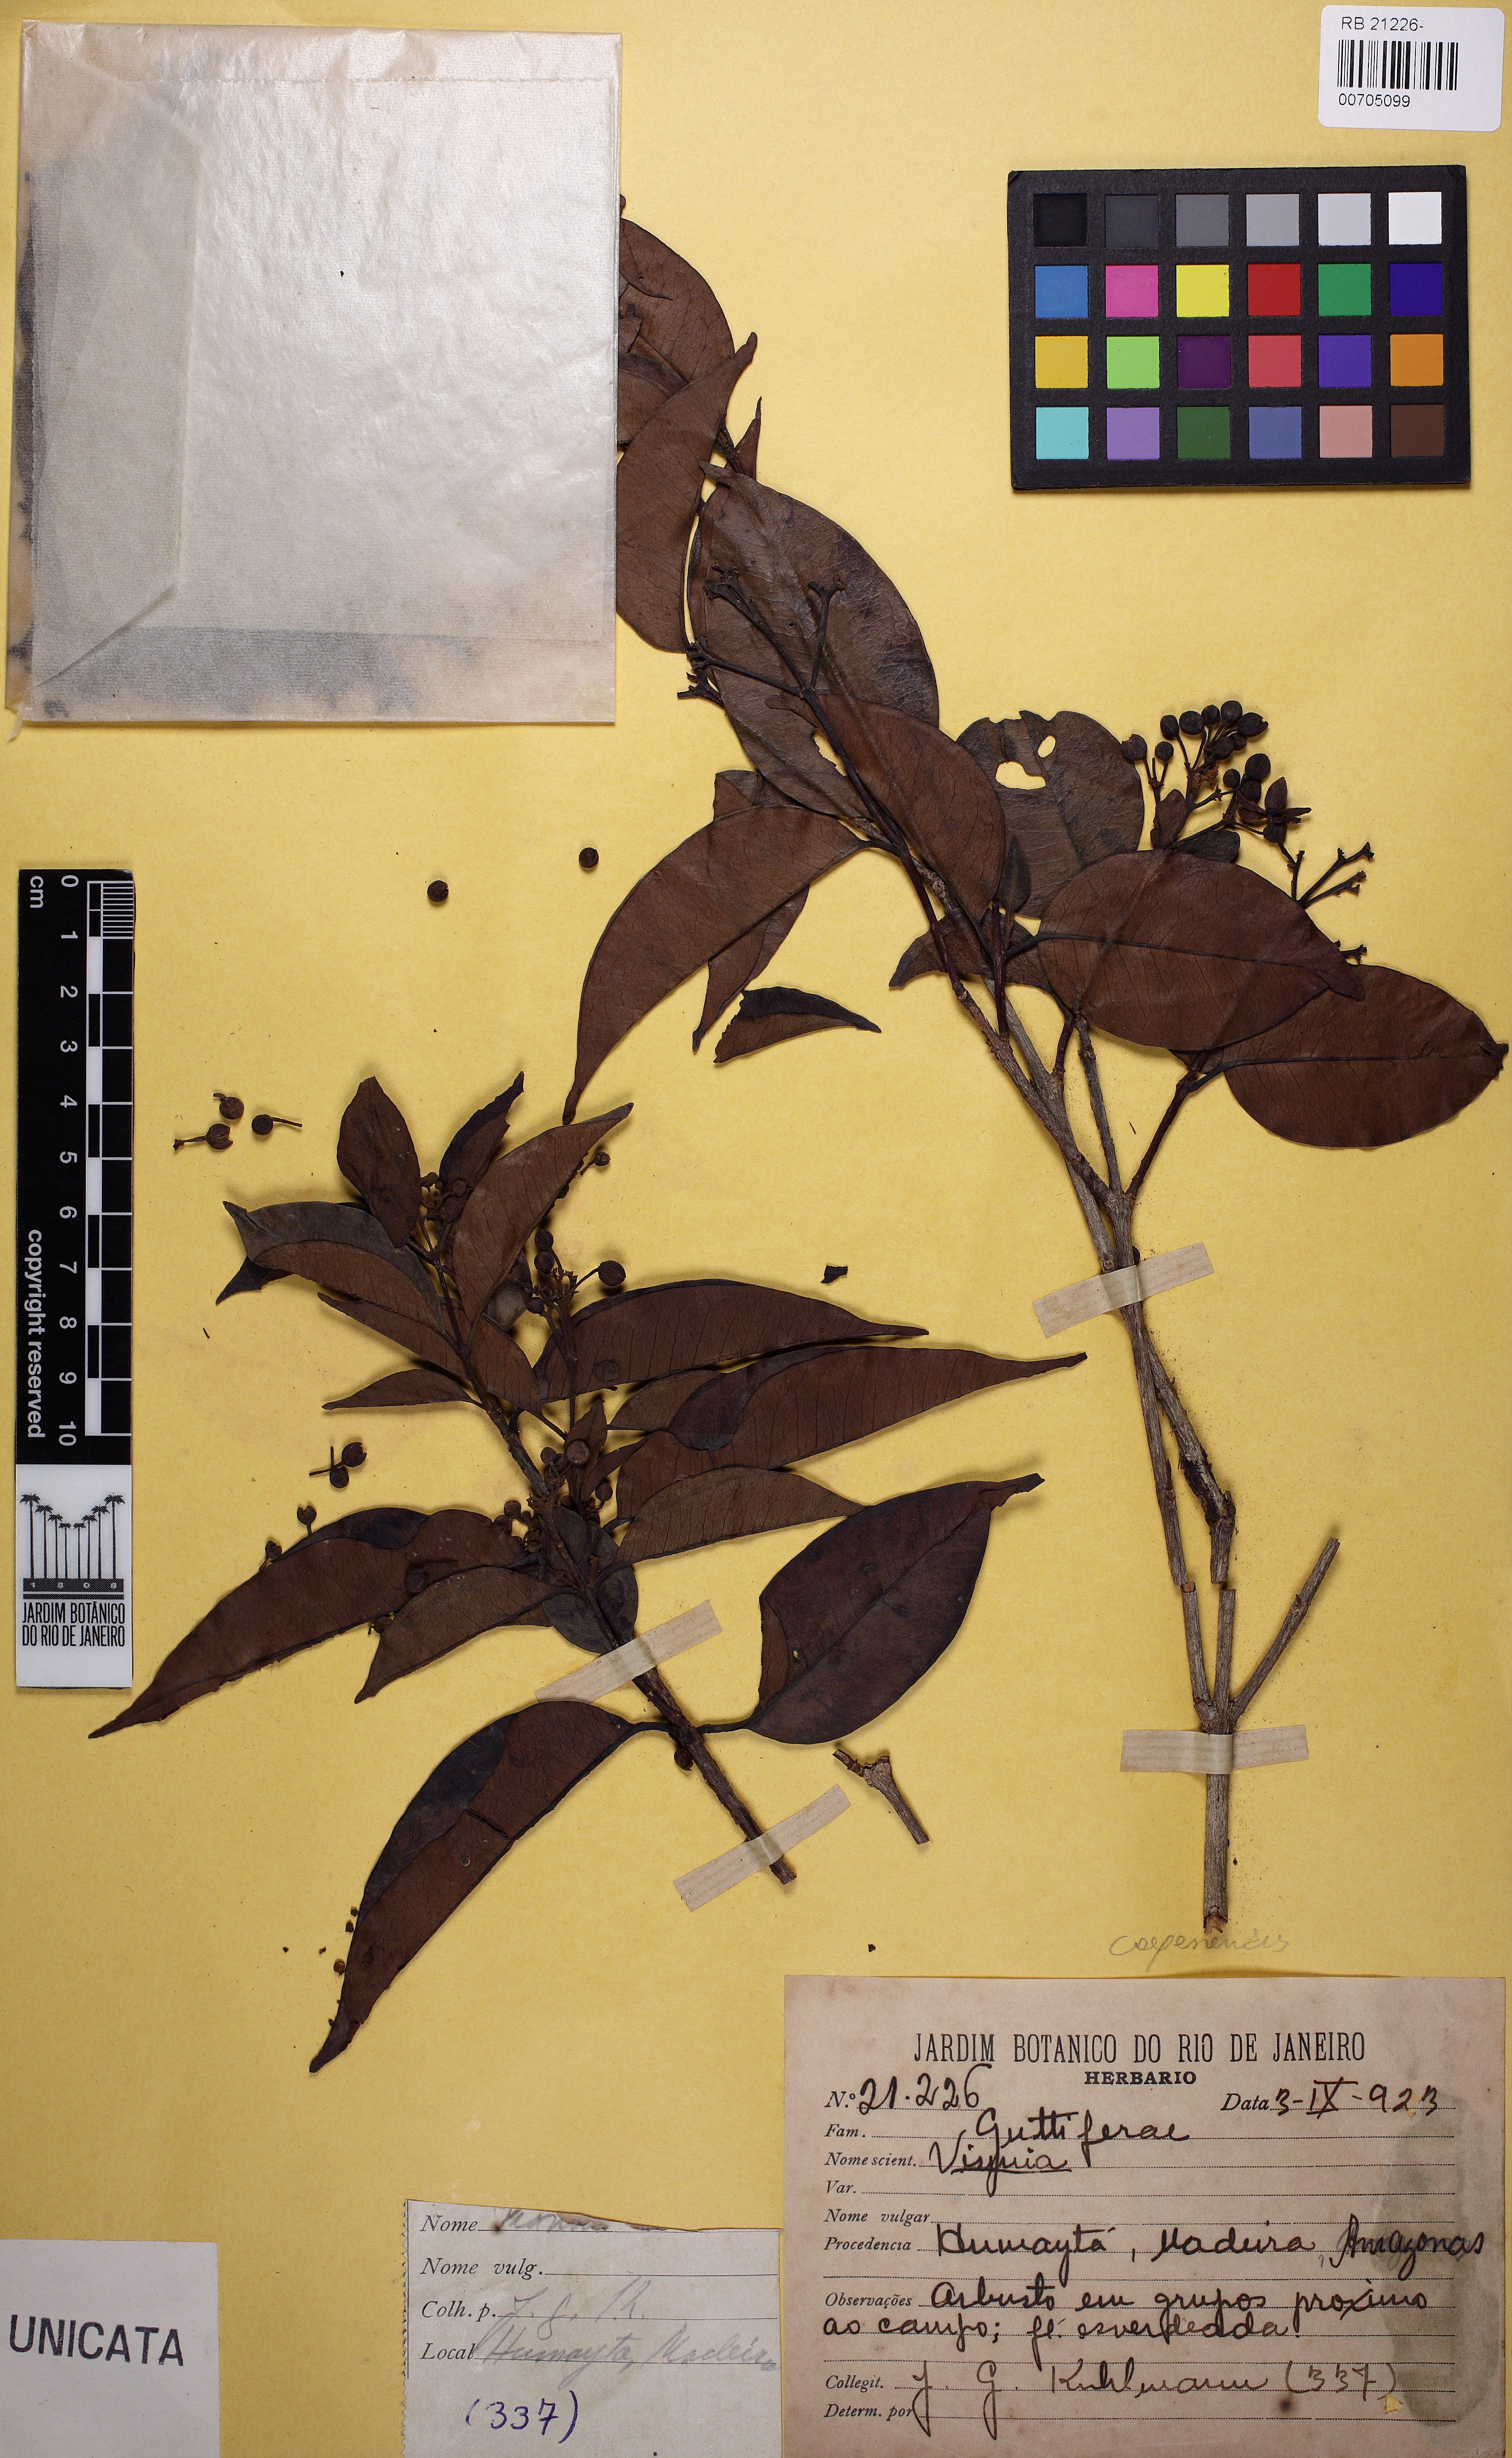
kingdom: Plantae
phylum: Tracheophyta
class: Magnoliopsida
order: Malpighiales
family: Hypericaceae
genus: Vismia
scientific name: Vismia cayennensis
